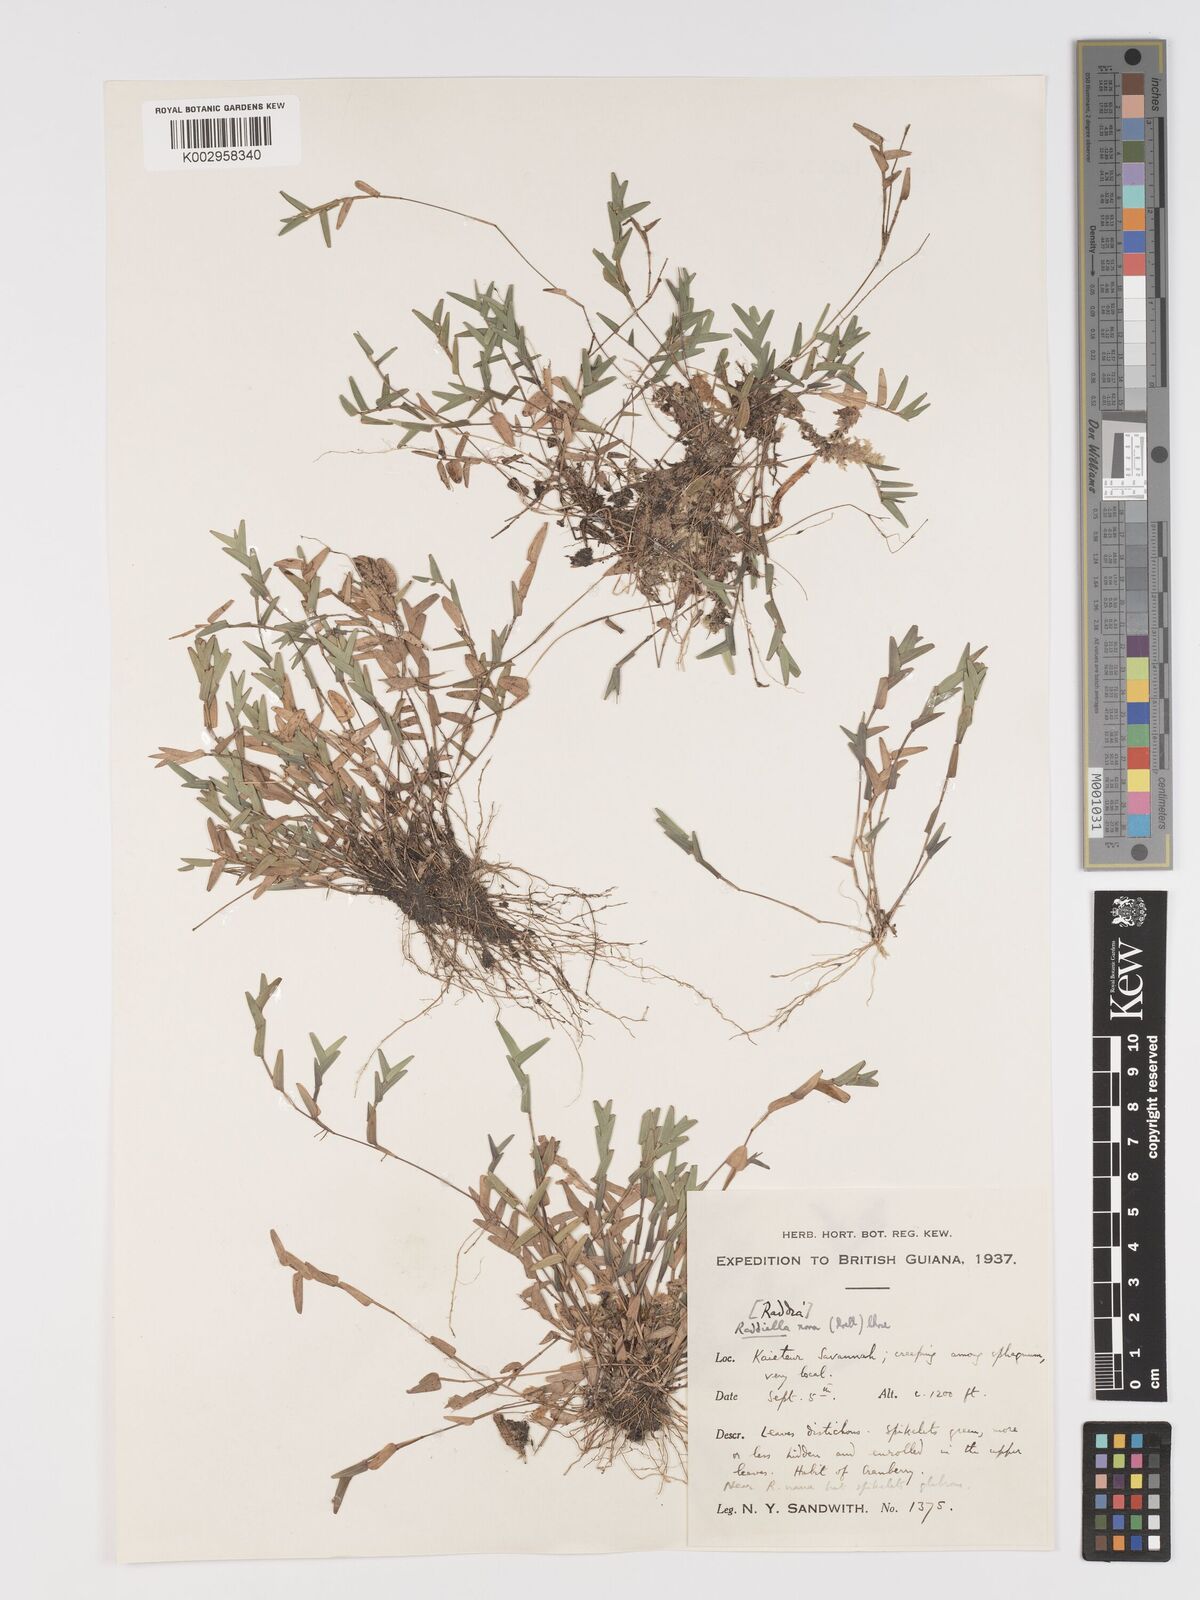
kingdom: Plantae
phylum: Tracheophyta
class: Liliopsida
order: Poales
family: Poaceae
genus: Raddiella
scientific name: Raddiella esenbeckii
